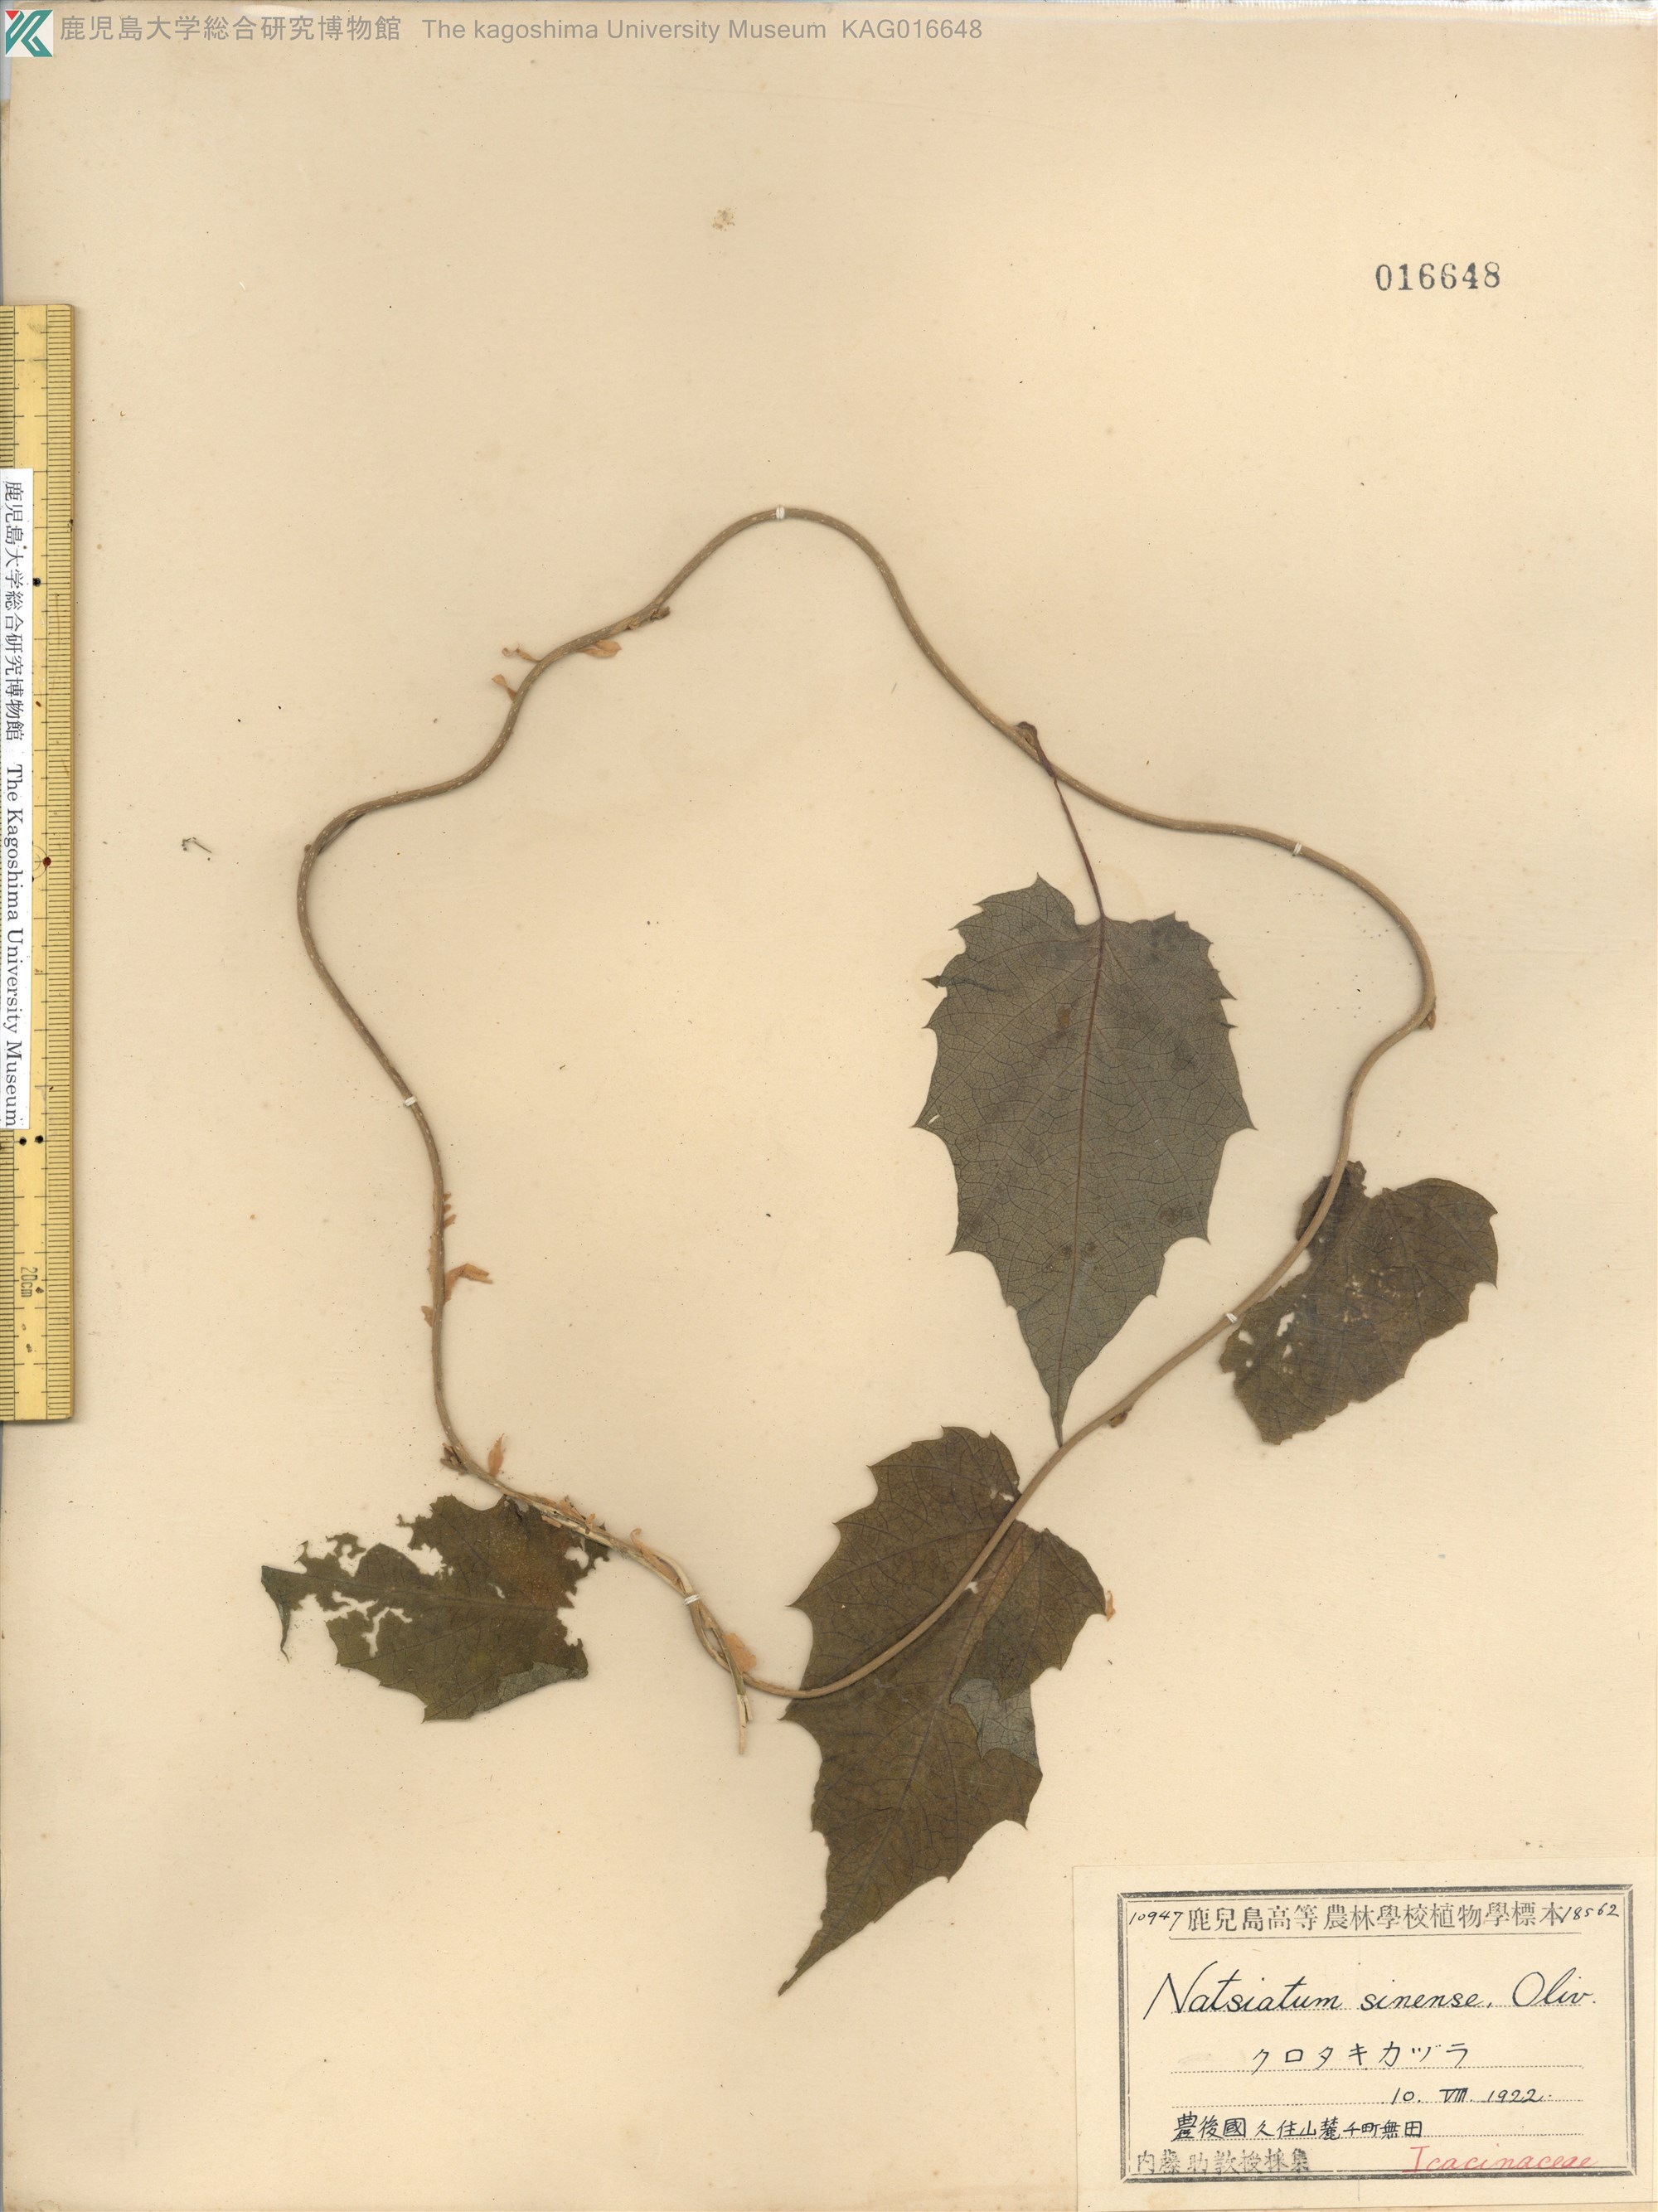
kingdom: Plantae
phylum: Tracheophyta
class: Magnoliopsida
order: Icacinales
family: Icacinaceae
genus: Hosiea
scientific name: Hosiea japonica
